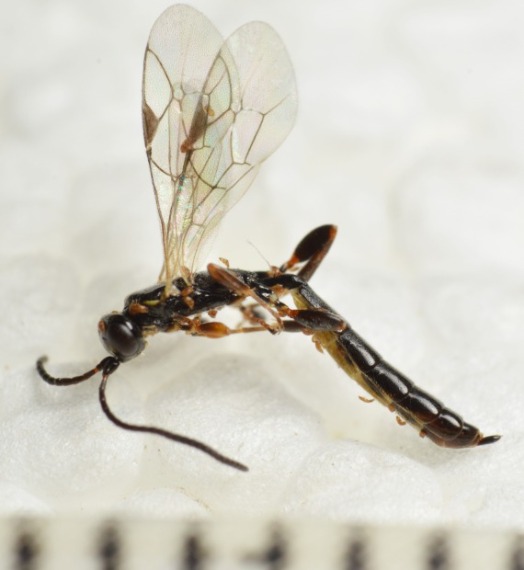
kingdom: Animalia
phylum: Arthropoda
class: Insecta
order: Hymenoptera
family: Ichneumonidae
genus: Nematomicrus
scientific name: Nematomicrus tenellus
